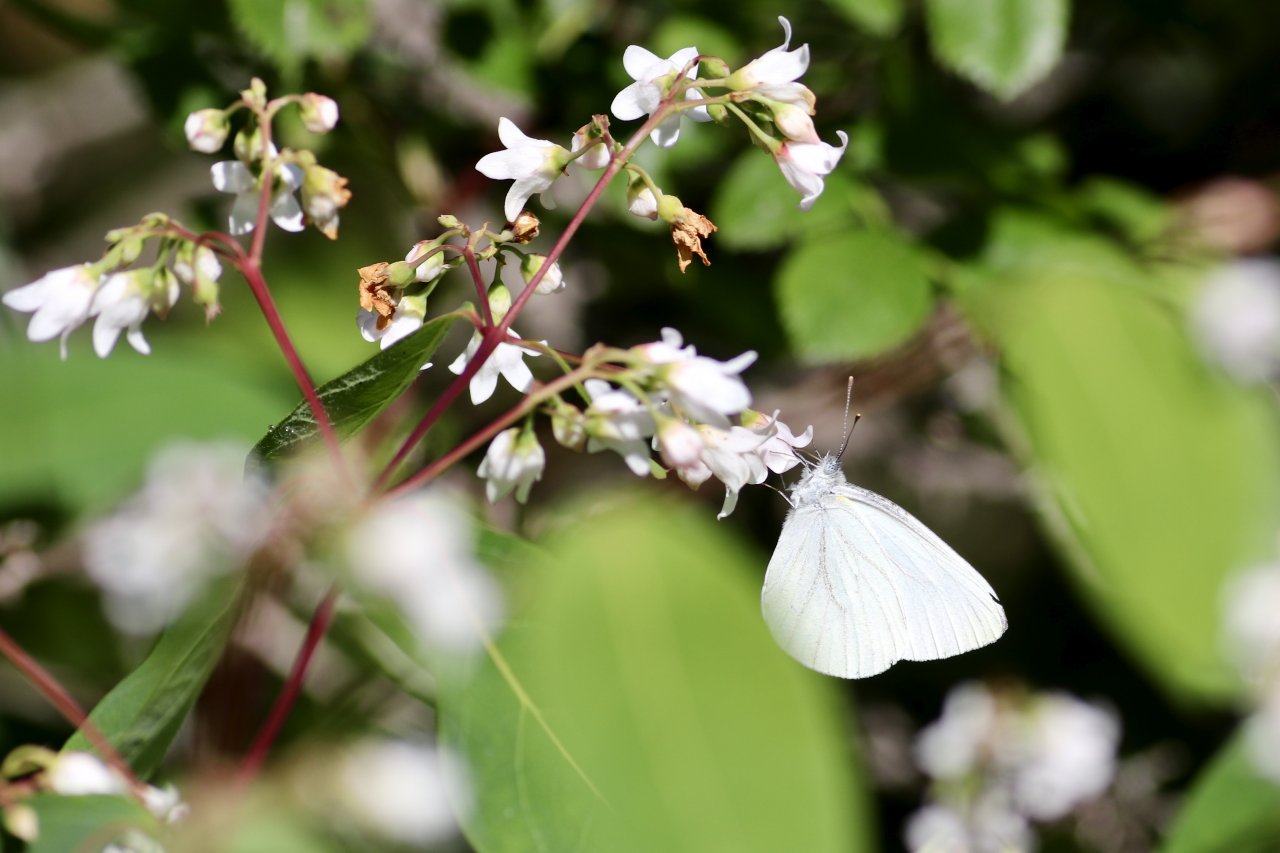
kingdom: Animalia
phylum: Arthropoda
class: Insecta
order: Lepidoptera
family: Pieridae
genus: Pieris
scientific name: Pieris oleracea
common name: Mustard White
